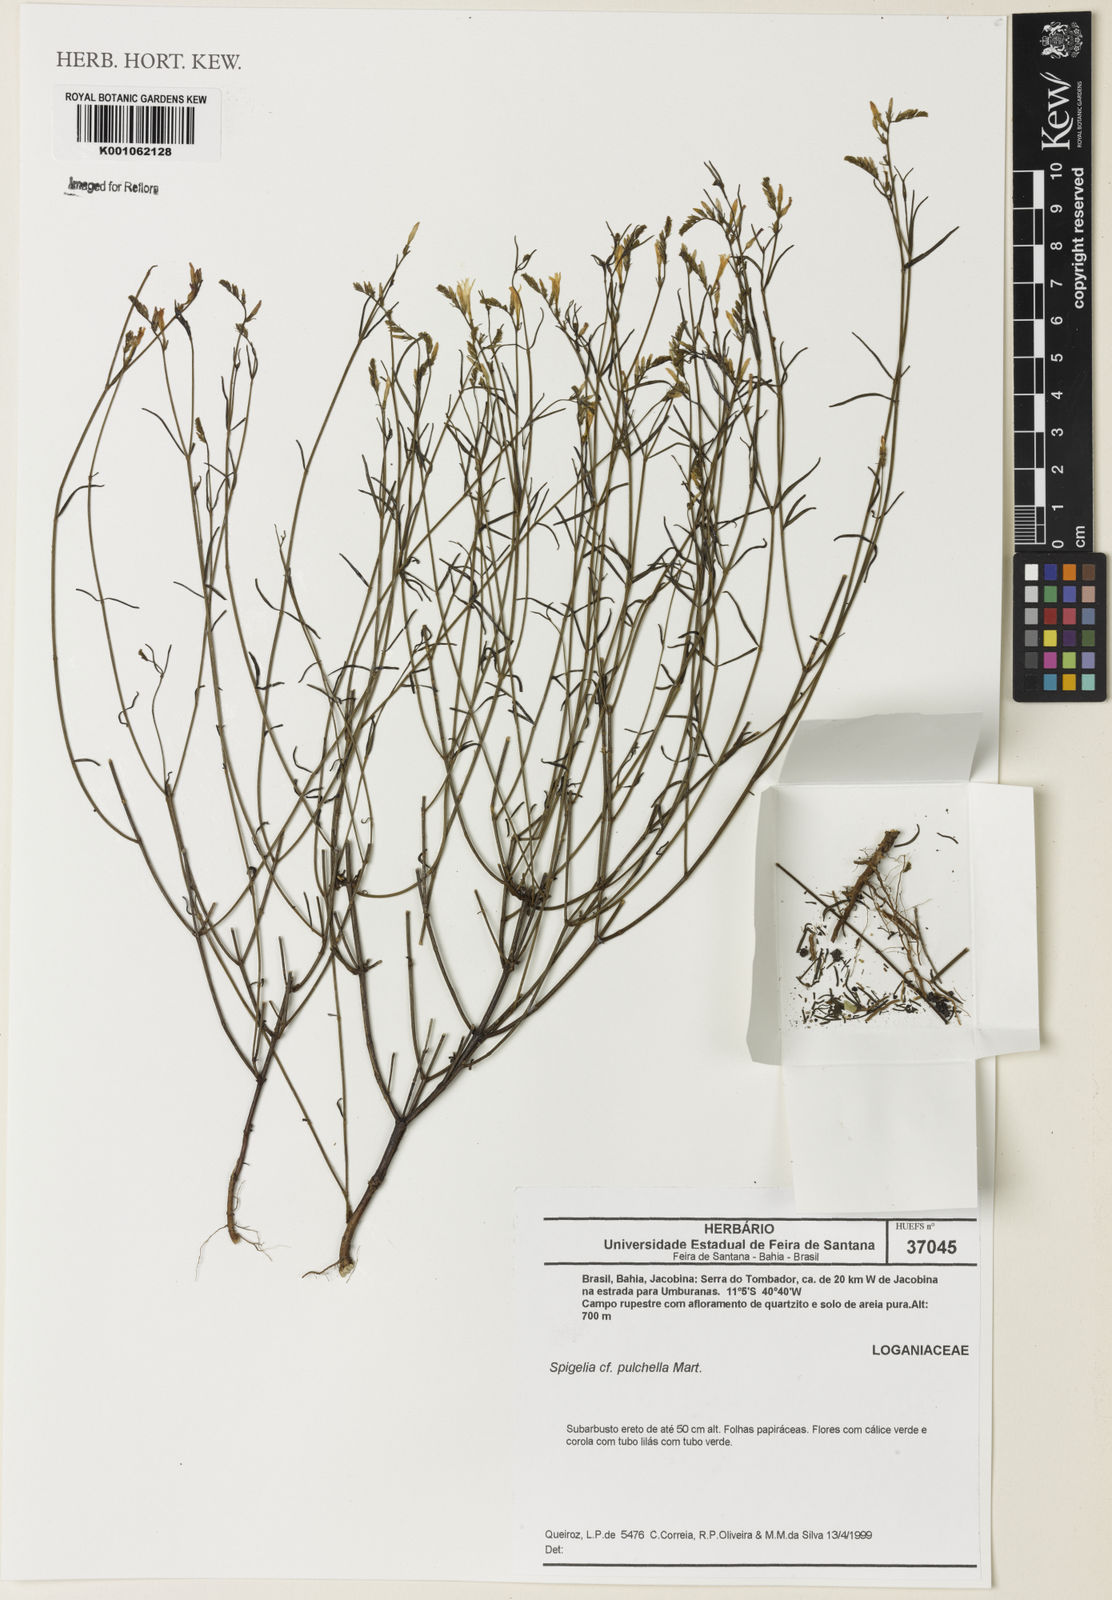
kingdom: Plantae
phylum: Tracheophyta
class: Magnoliopsida
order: Gentianales
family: Loganiaceae
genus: Spigelia
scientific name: Spigelia pulchella
